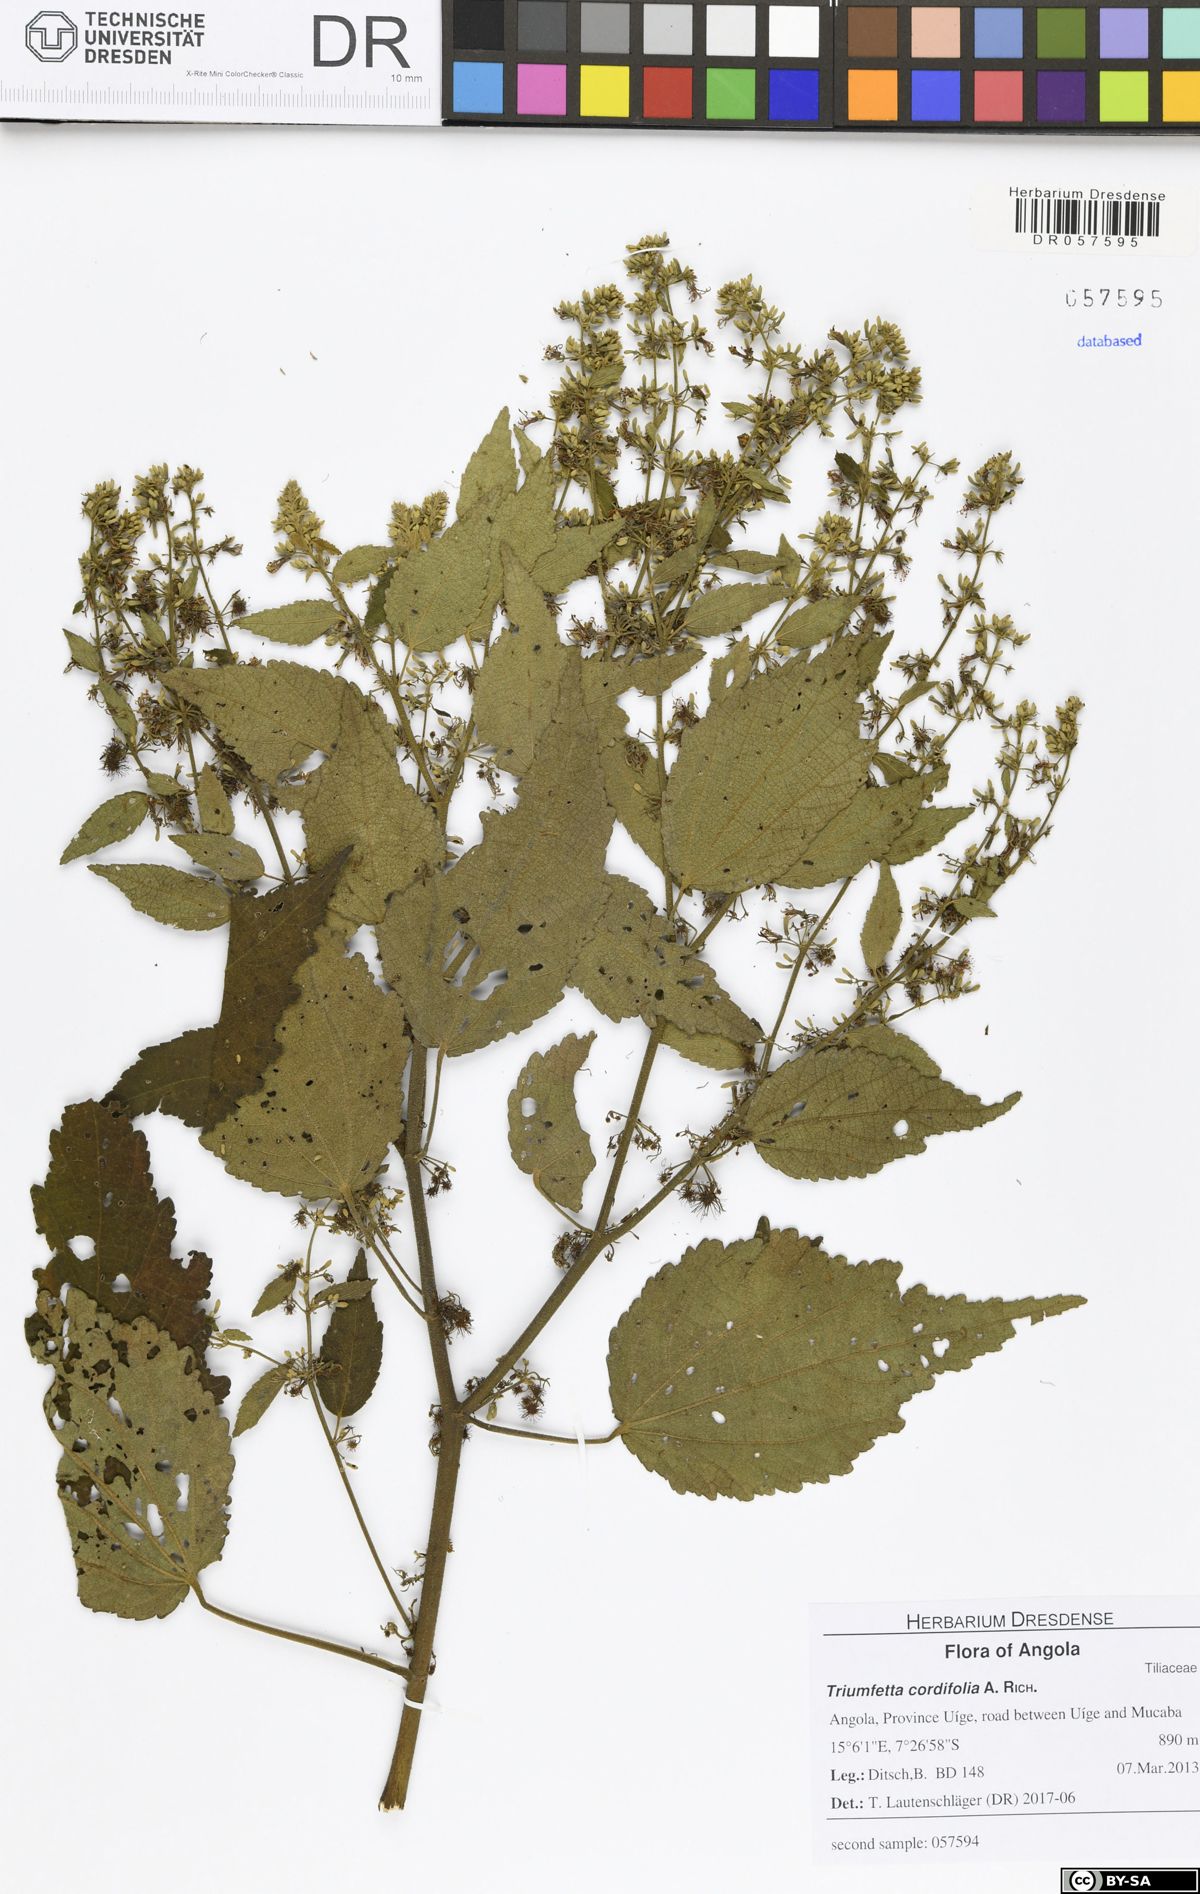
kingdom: Plantae
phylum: Tracheophyta
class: Magnoliopsida
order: Malvales
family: Malvaceae
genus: Triumfetta
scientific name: Triumfetta cordifolia
